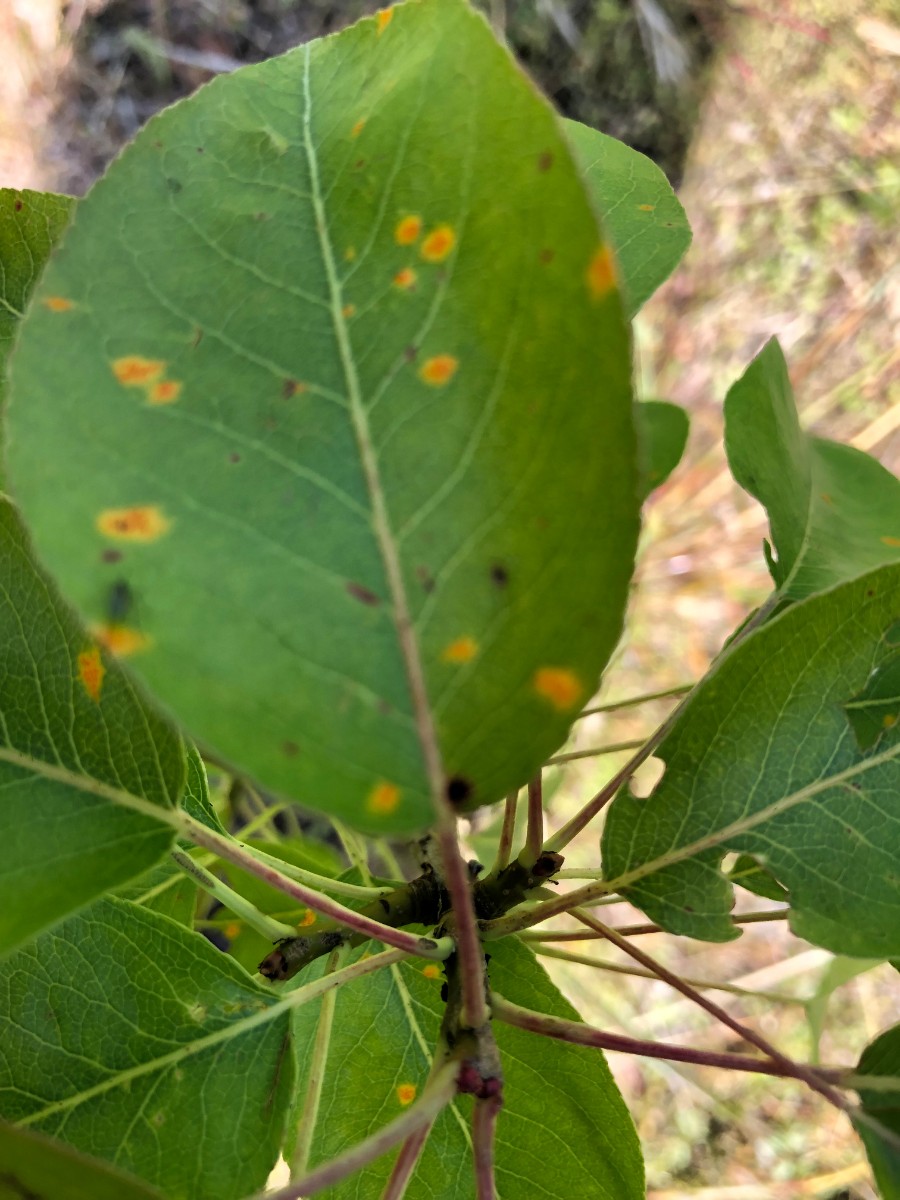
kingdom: Fungi
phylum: Basidiomycota
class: Pucciniomycetes
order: Pucciniales
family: Gymnosporangiaceae
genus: Gymnosporangium
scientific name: Gymnosporangium sabinae
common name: pæregitter-bævrerust
